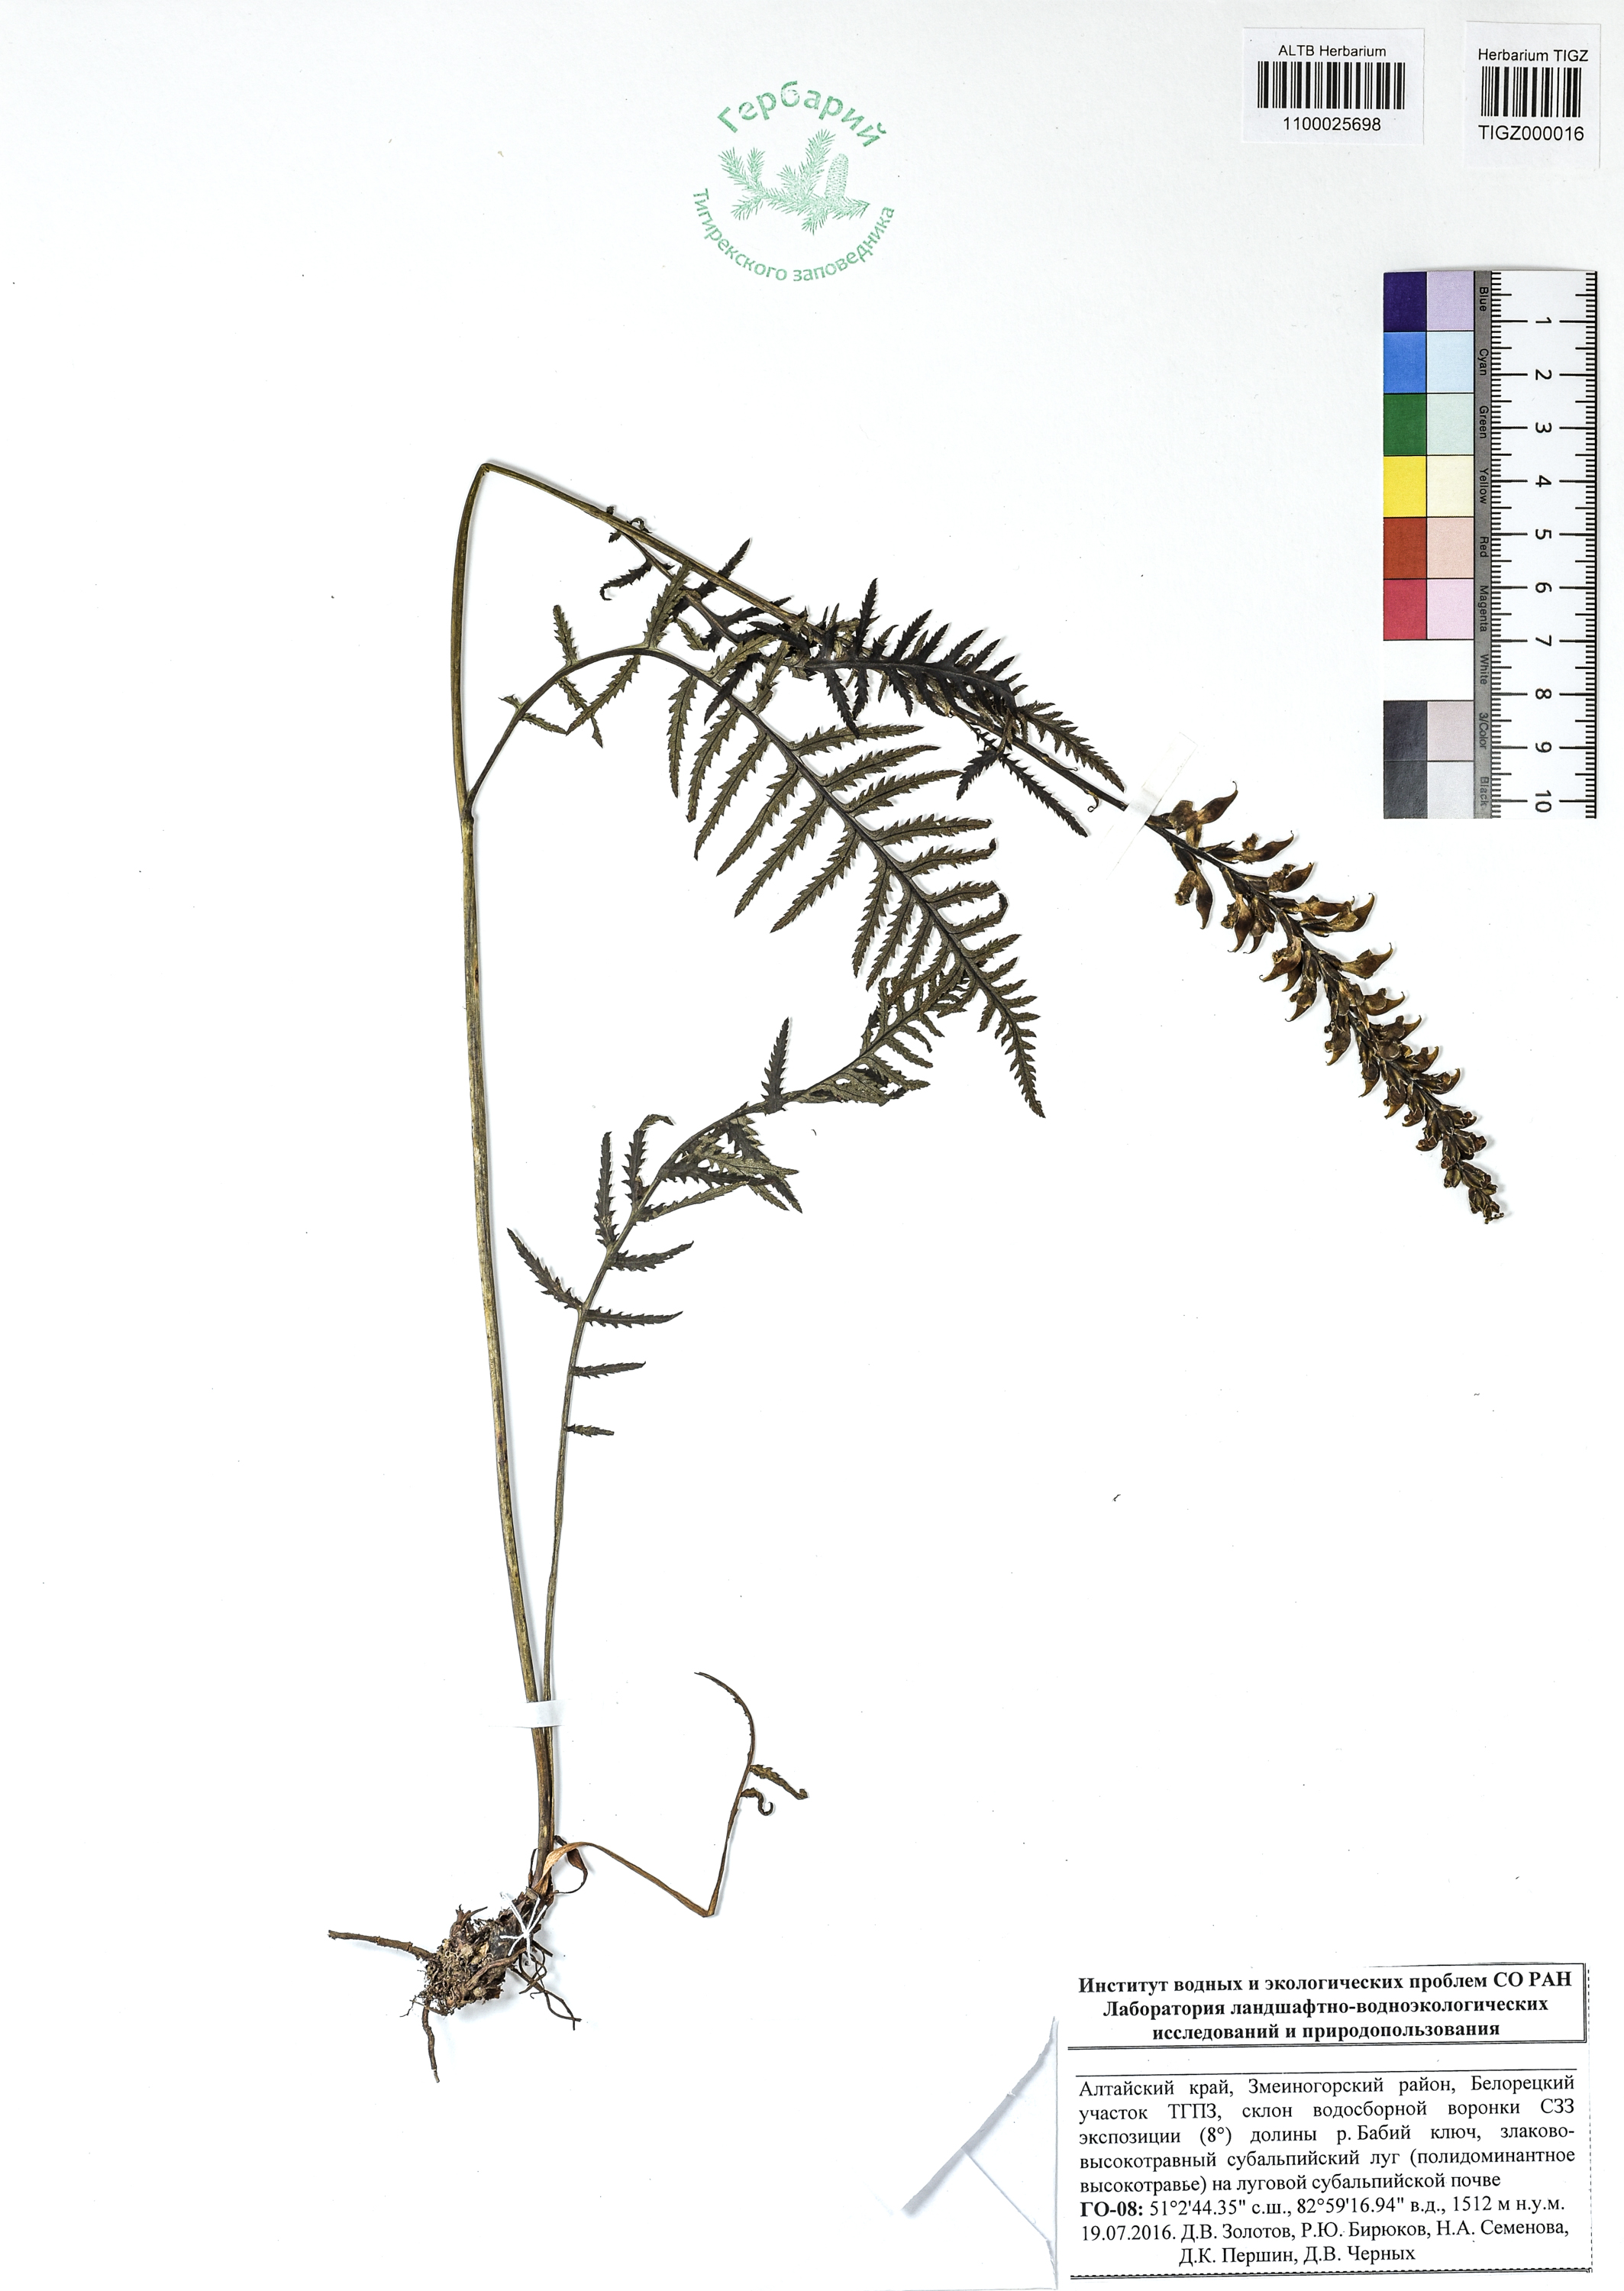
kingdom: Plantae
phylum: Tracheophyta
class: Magnoliopsida
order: Lamiales
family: Orobanchaceae
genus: Pedicularis
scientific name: Pedicularis proboscidea
